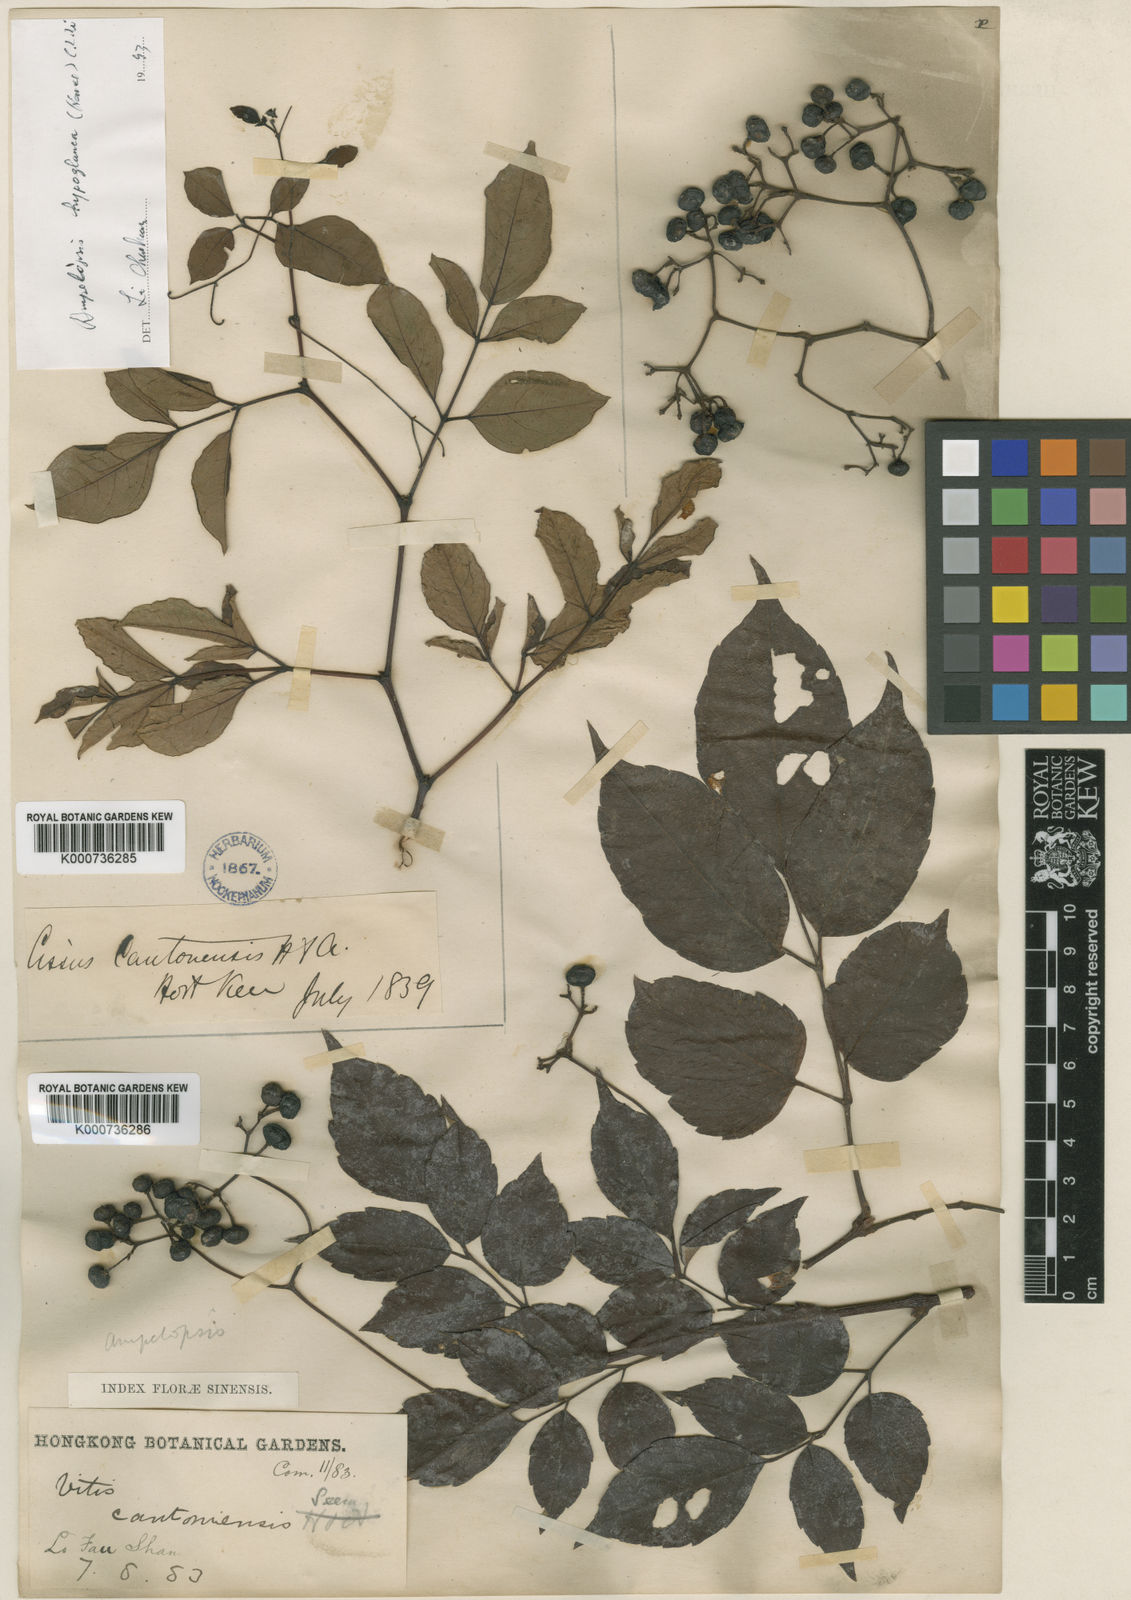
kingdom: Plantae
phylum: Tracheophyta
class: Magnoliopsida
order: Vitales
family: Vitaceae
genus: Nekemias
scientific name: Nekemias cantoniensis
